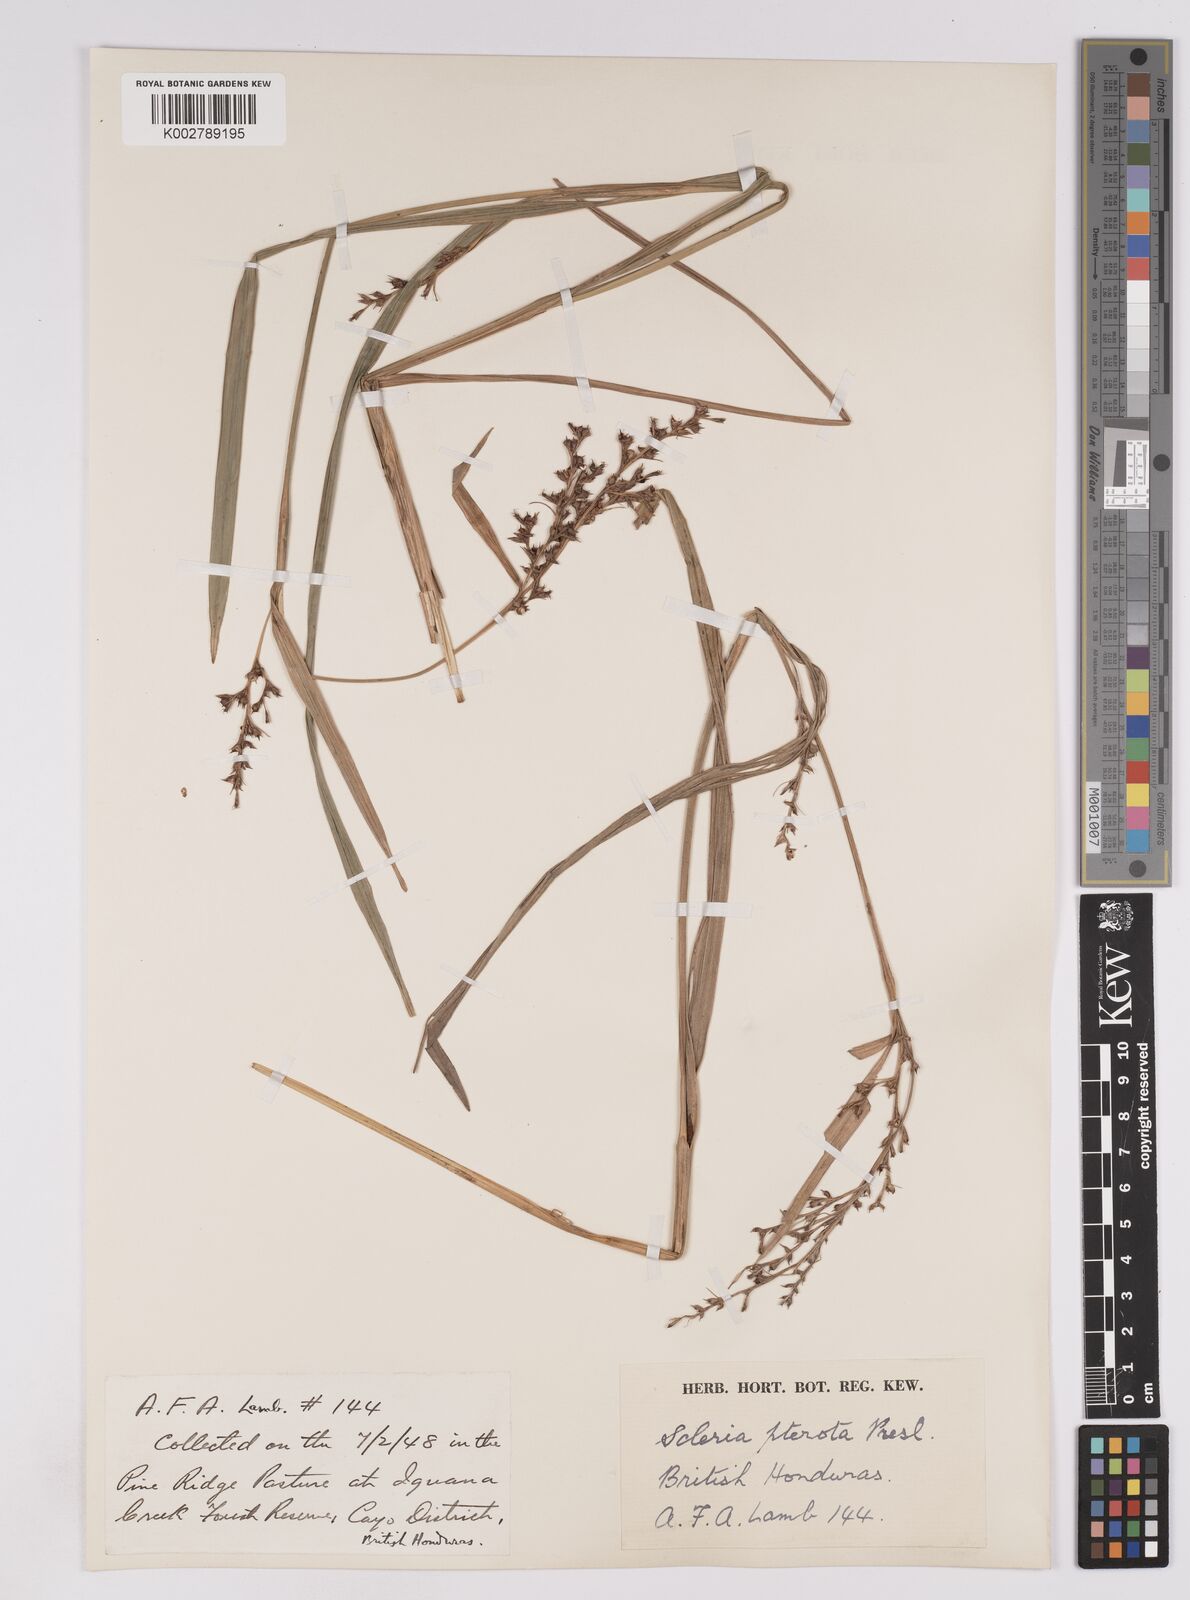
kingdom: Plantae
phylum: Tracheophyta
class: Liliopsida
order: Poales
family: Cyperaceae
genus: Scleria
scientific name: Scleria gaertneri
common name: Cortadera blanca
